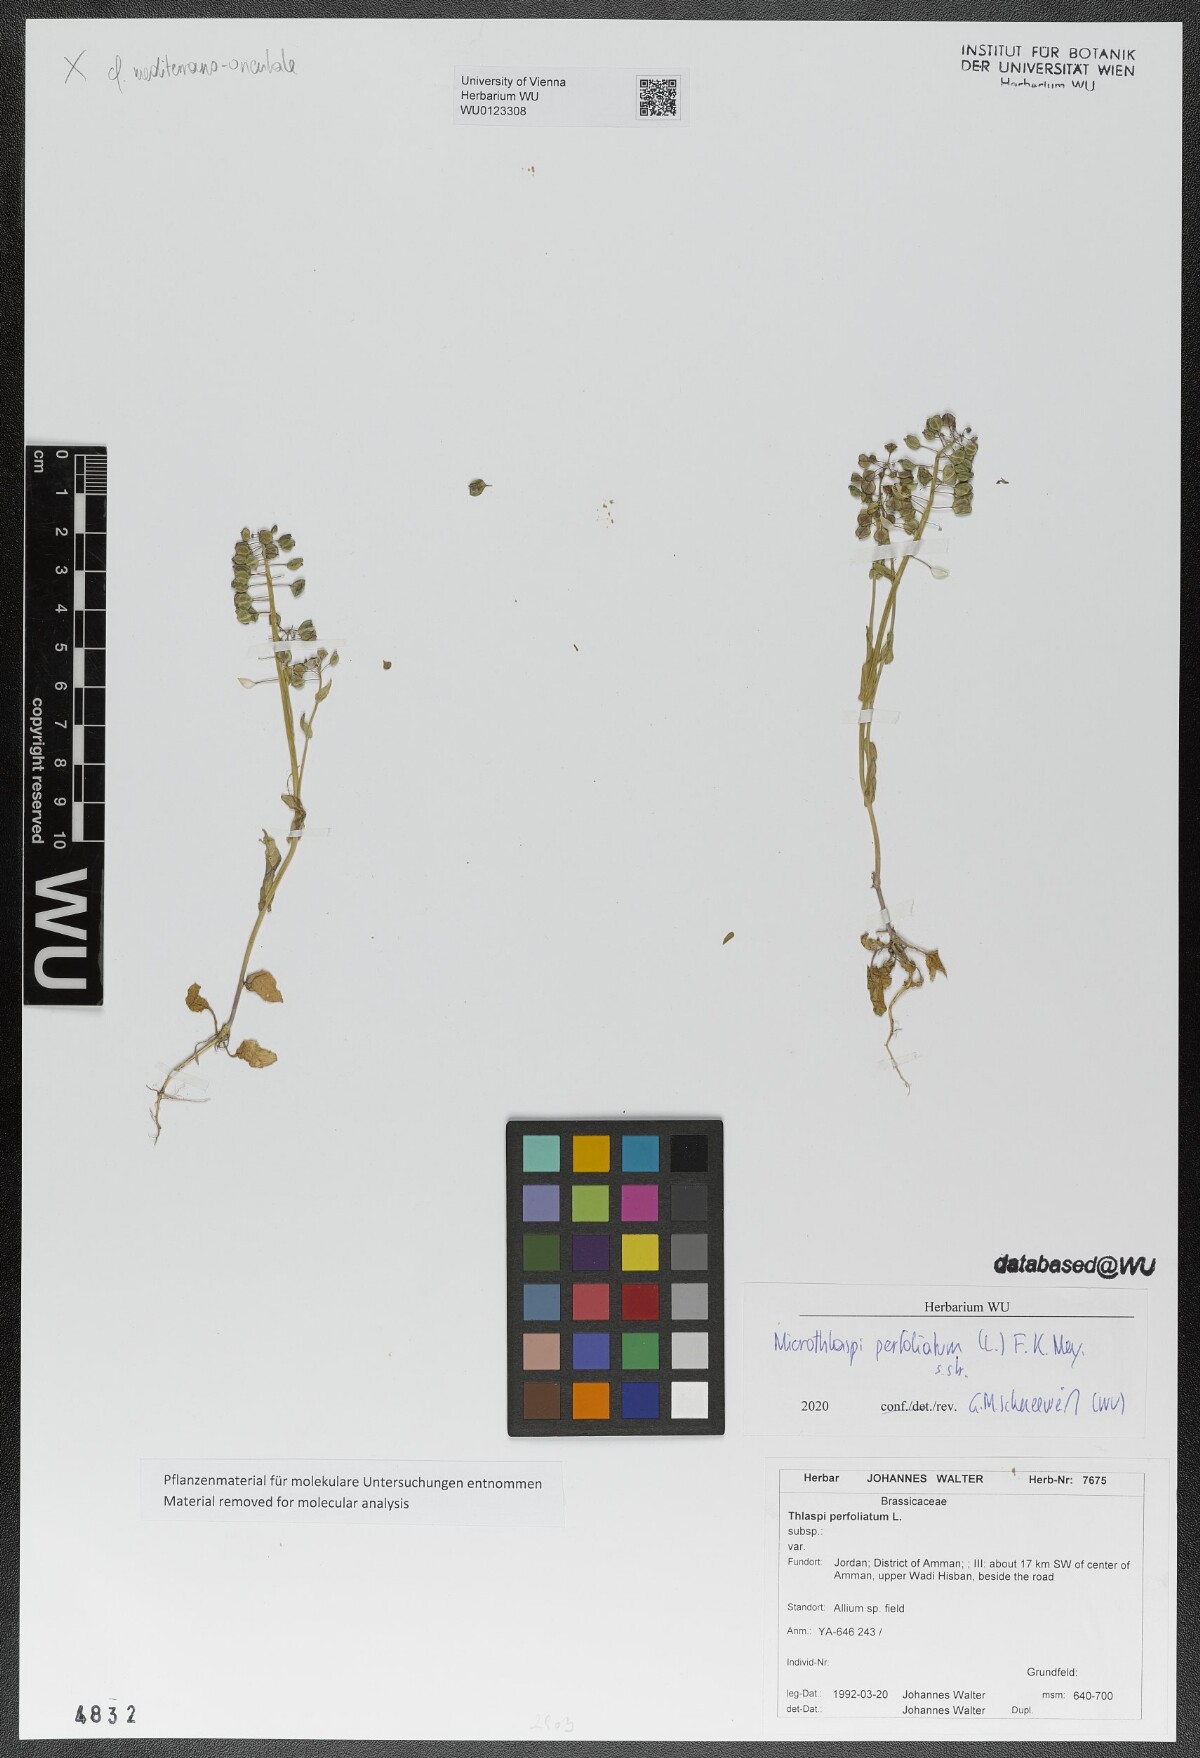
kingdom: Plantae
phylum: Tracheophyta
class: Magnoliopsida
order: Brassicales
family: Brassicaceae
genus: Noccaea
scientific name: Noccaea perfoliata
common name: Perfoliate pennycress
